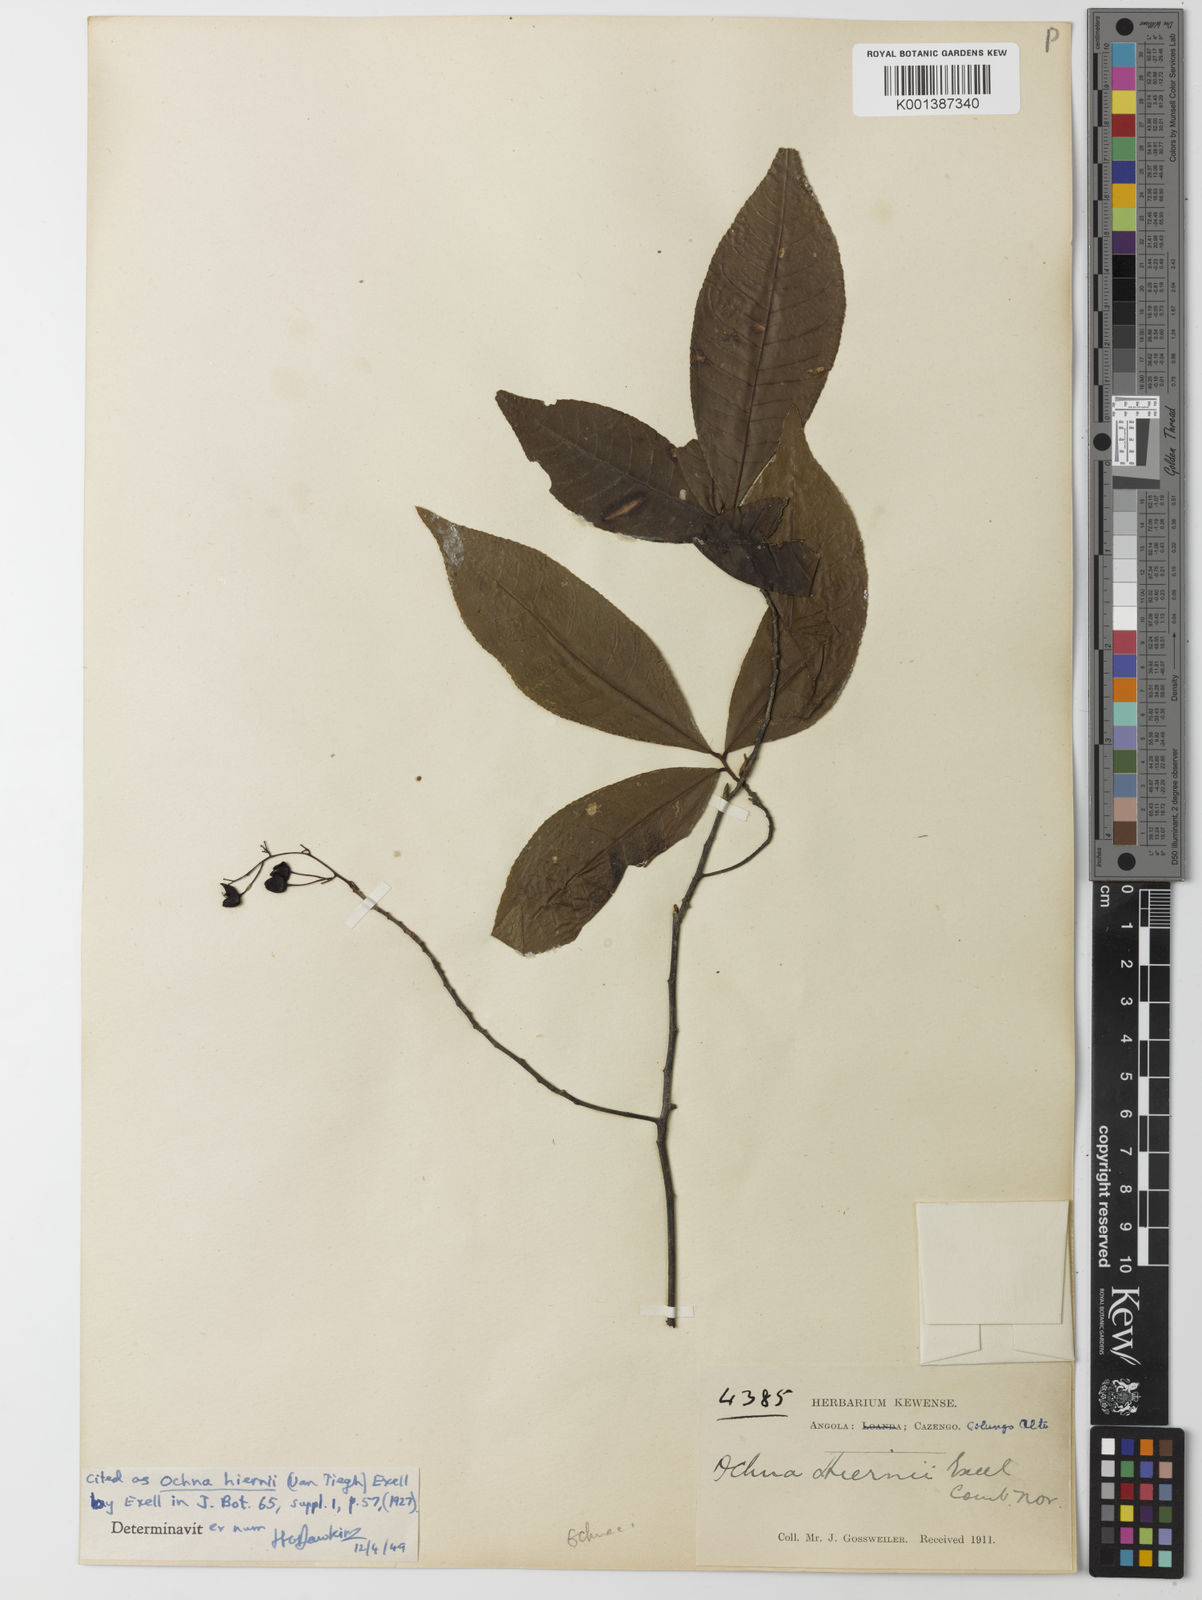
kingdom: Plantae
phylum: Tracheophyta
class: Magnoliopsida
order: Malpighiales
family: Ochnaceae
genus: Ochna
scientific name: Ochna membranacea
